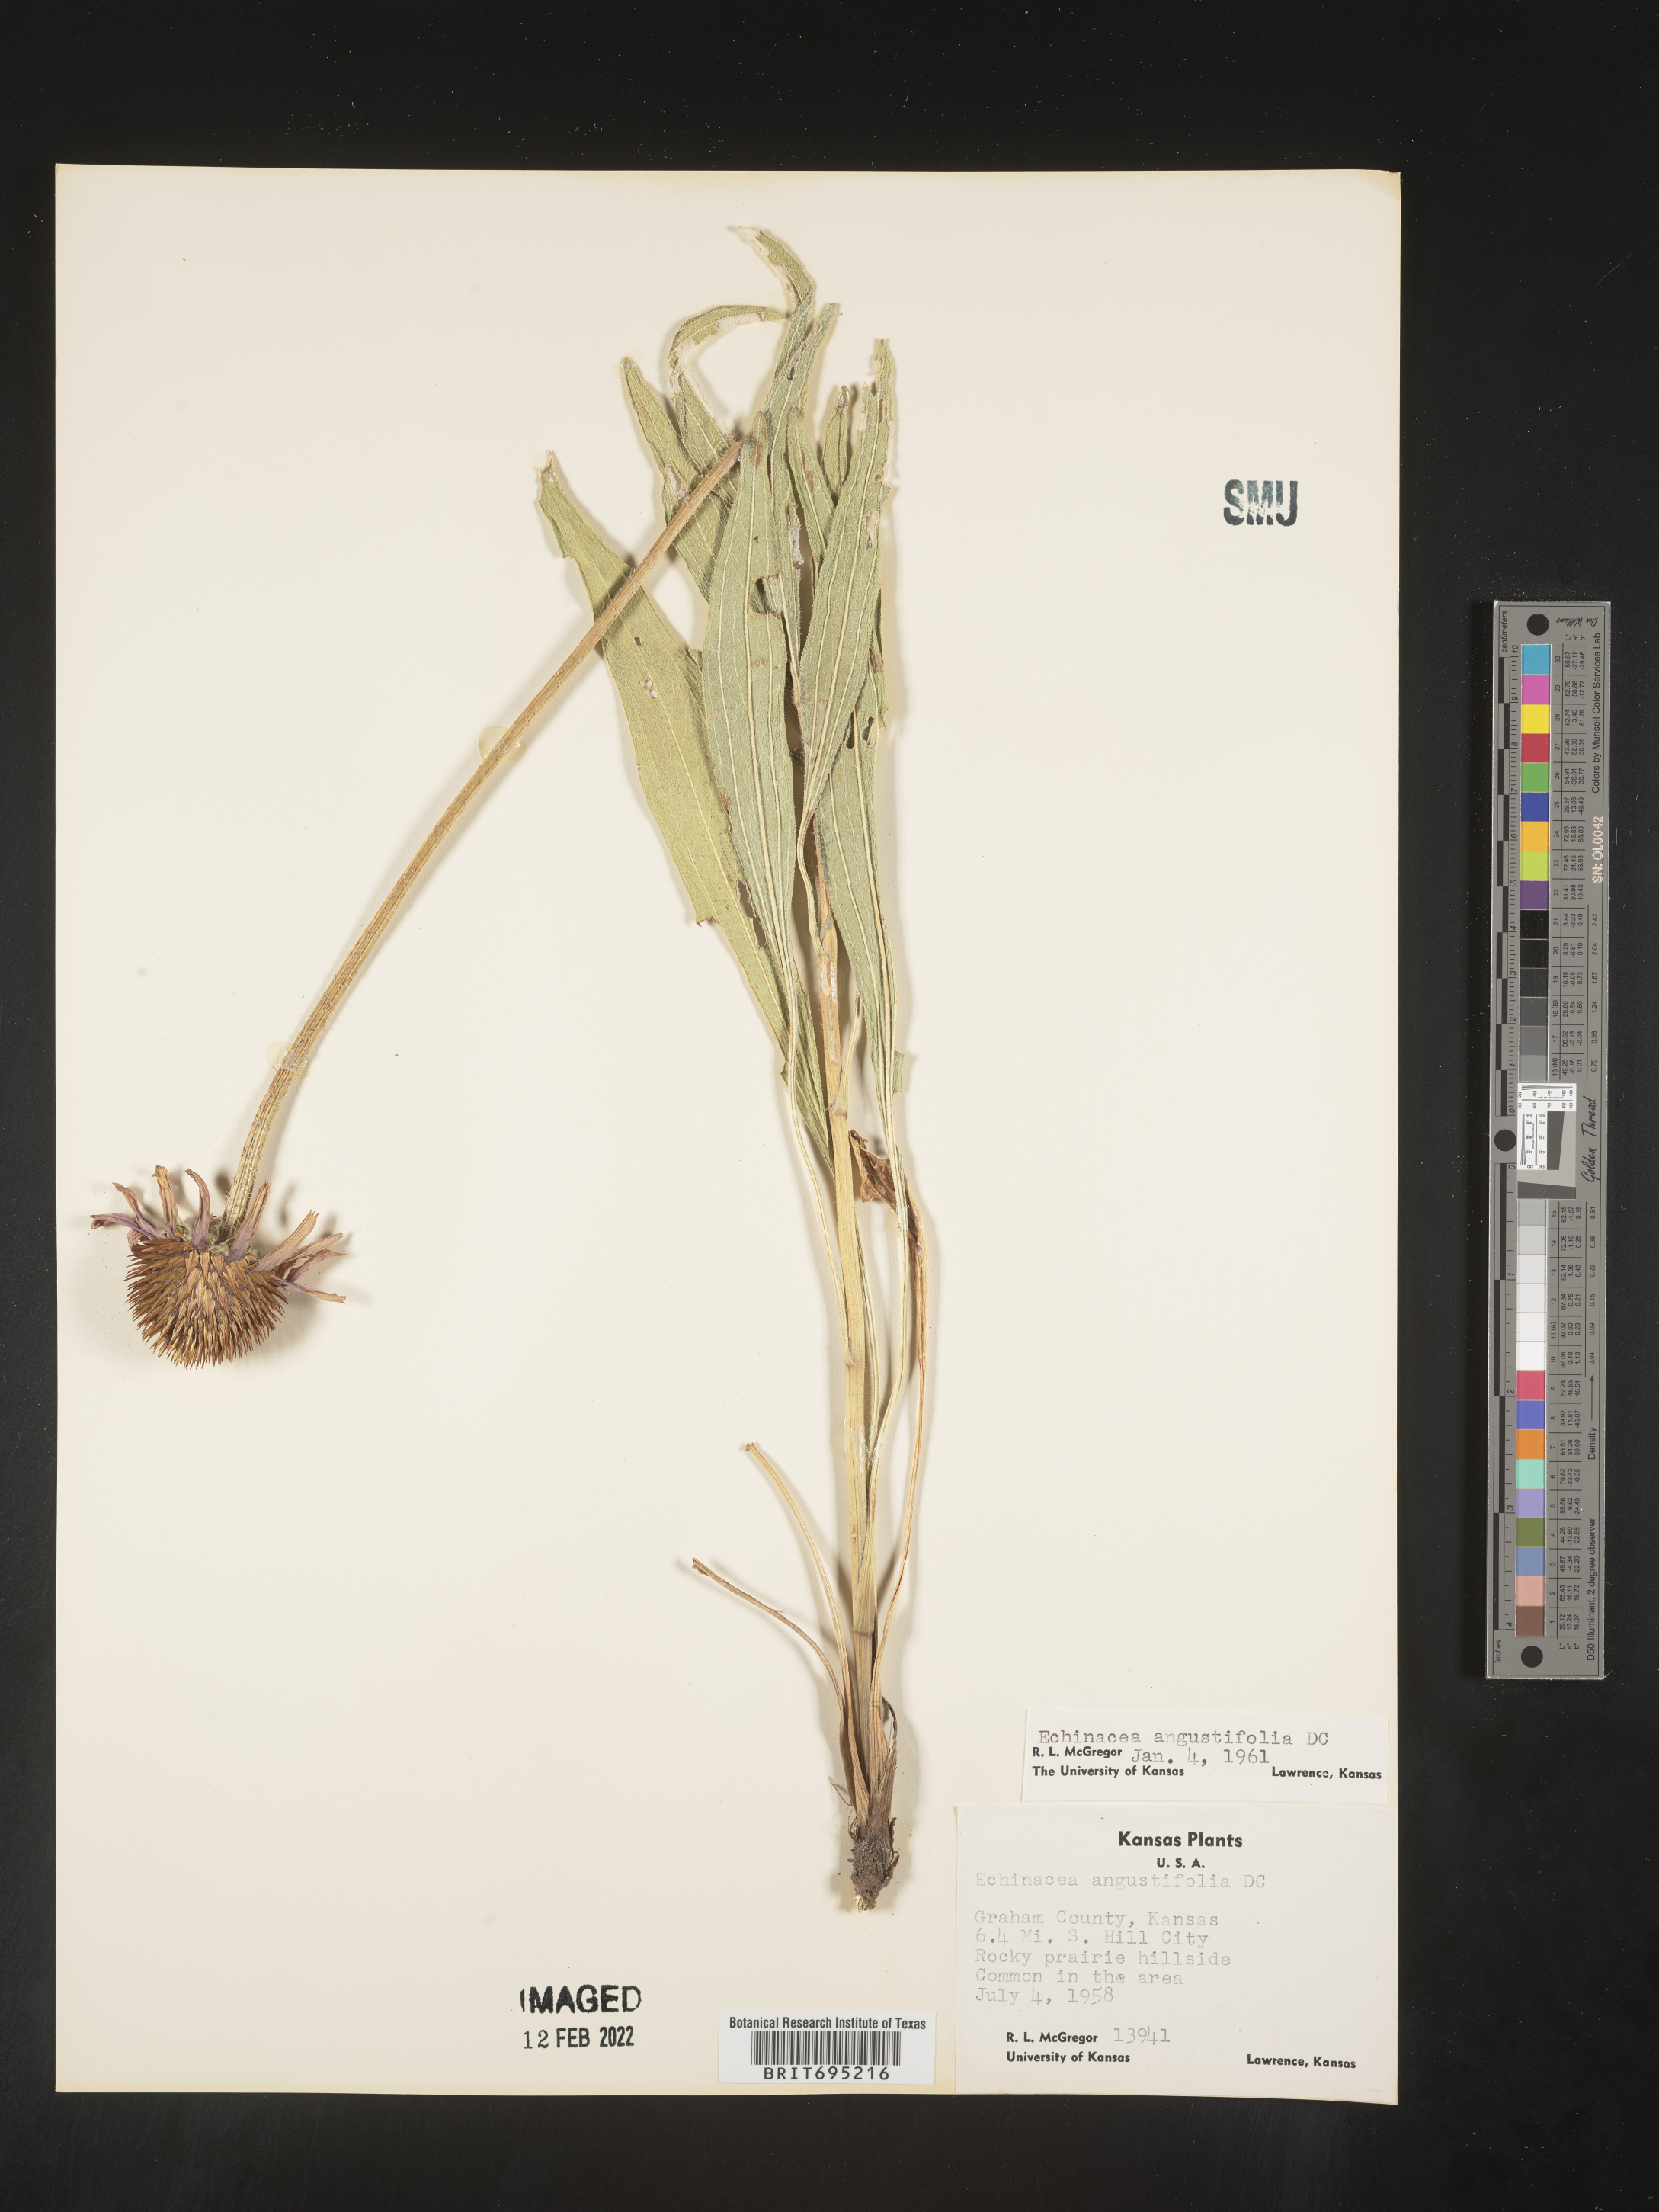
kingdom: Plantae
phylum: Tracheophyta
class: Magnoliopsida
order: Asterales
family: Asteraceae
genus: Echinacea
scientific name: Echinacea angustifolia
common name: Black-sampson echinacea
